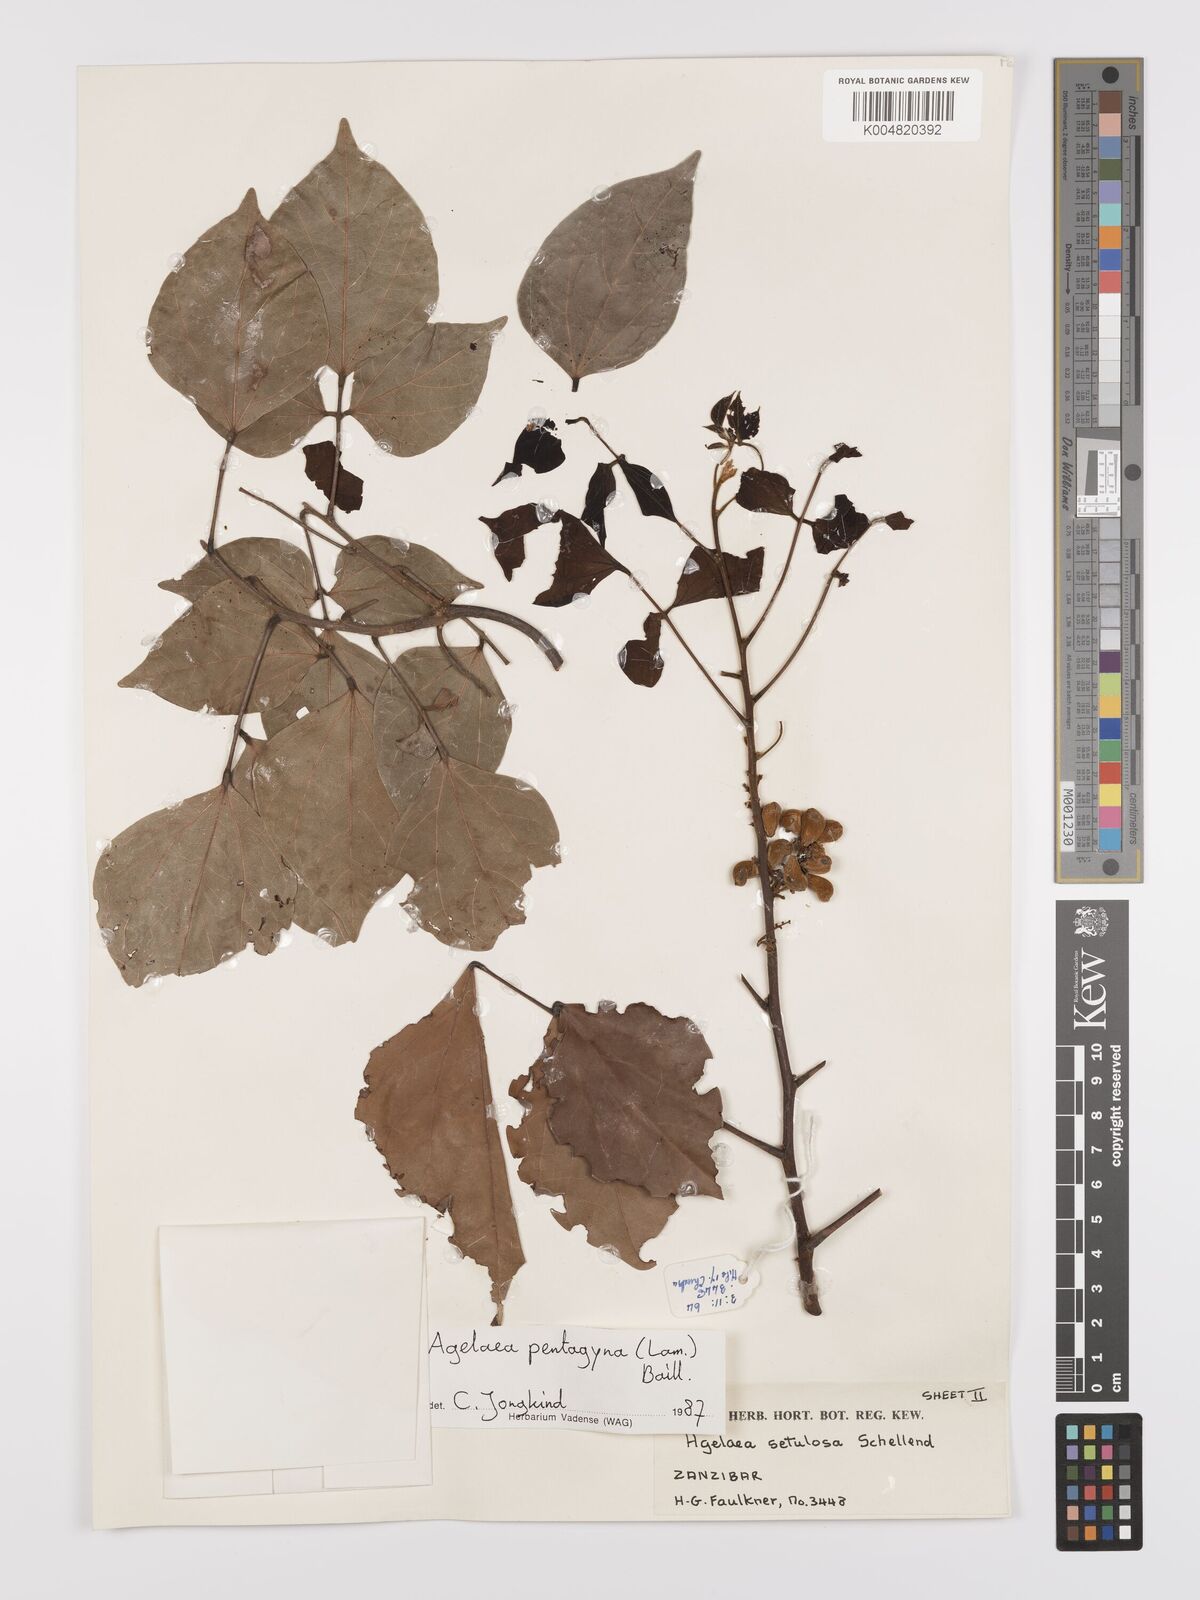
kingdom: Plantae
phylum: Tracheophyta
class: Magnoliopsida
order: Oxalidales
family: Connaraceae
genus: Agelaea
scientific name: Agelaea pentagyna
